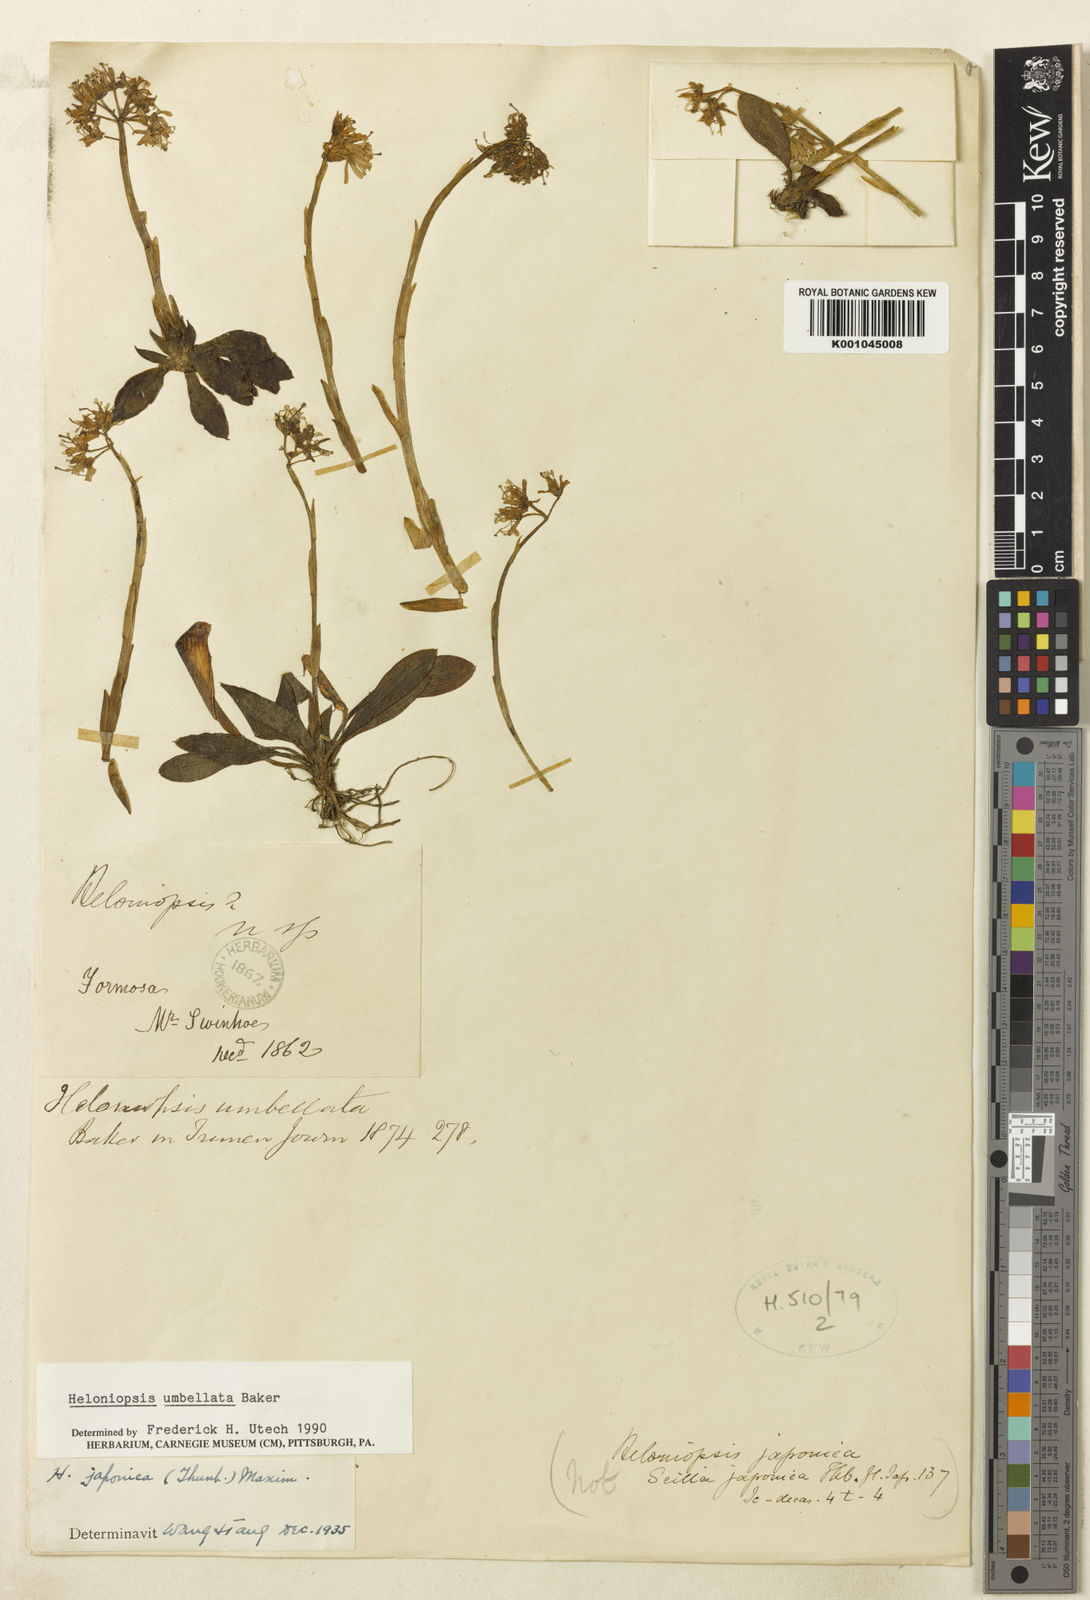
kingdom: Plantae
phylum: Tracheophyta
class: Liliopsida
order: Liliales
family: Melanthiaceae
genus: Helonias
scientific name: Helonias umbellata
